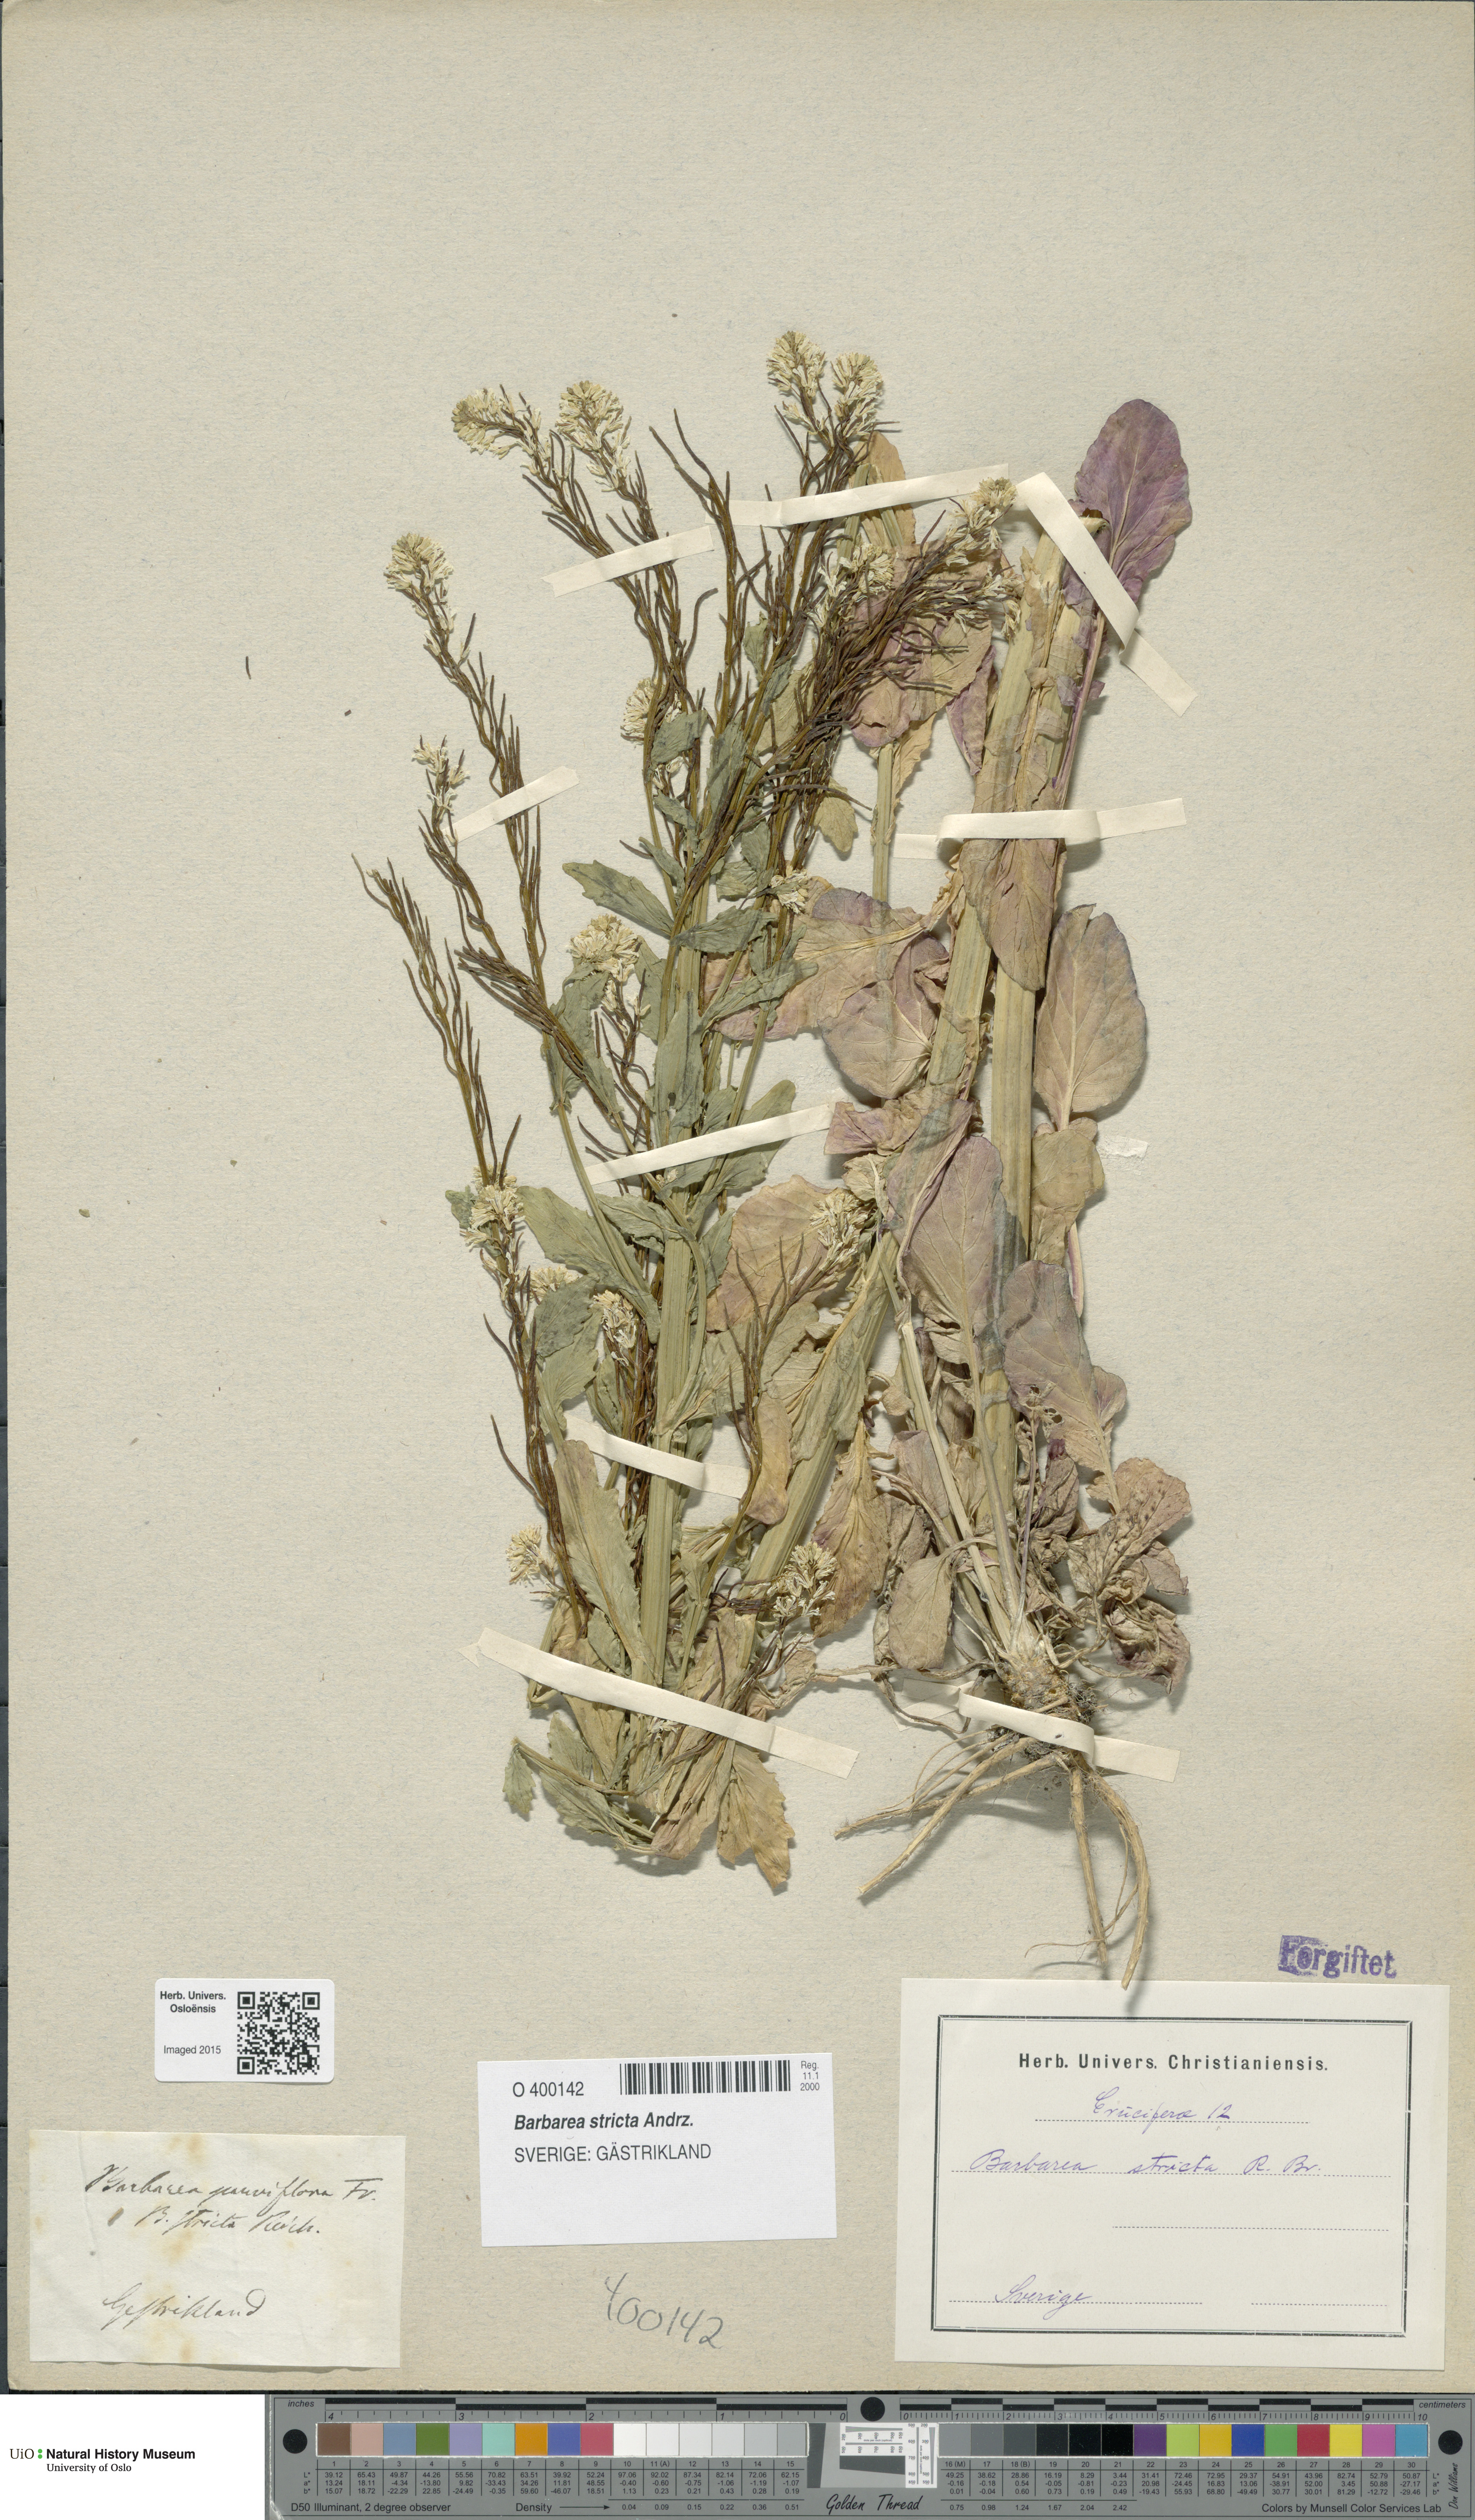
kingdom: Plantae
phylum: Tracheophyta
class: Magnoliopsida
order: Brassicales
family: Brassicaceae
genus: Barbarea
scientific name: Barbarea stricta
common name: Small-flowered winter-cress
